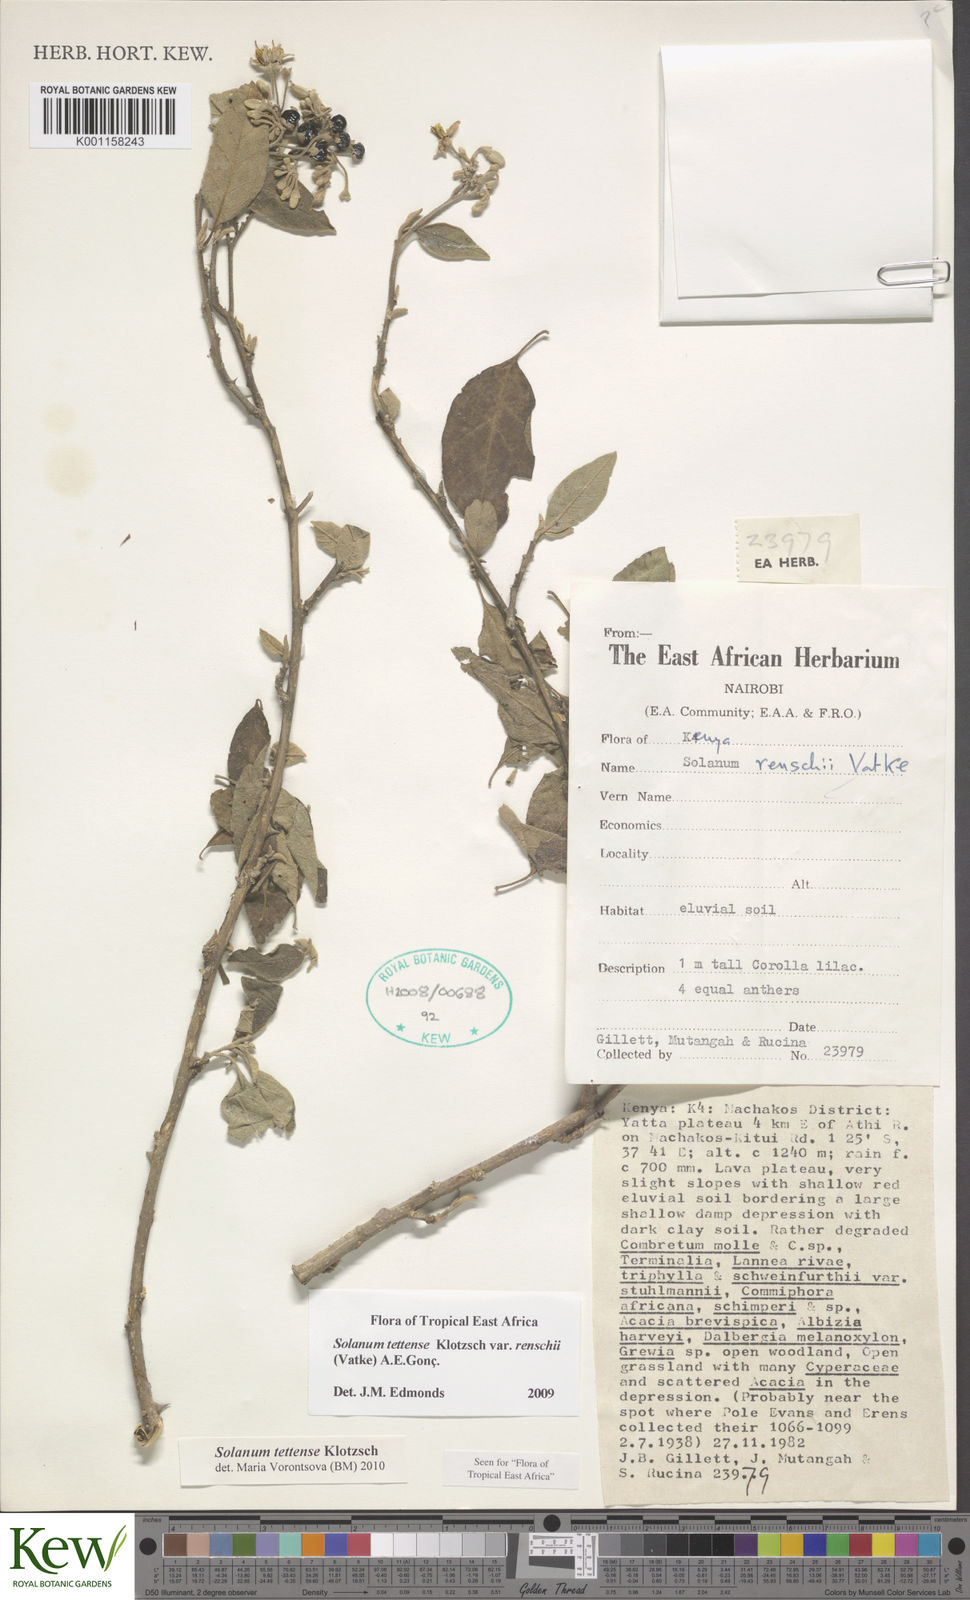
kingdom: Plantae
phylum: Tracheophyta
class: Magnoliopsida
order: Solanales
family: Solanaceae
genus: Solanum
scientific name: Solanum tettense
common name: Mozambique bitter apple
